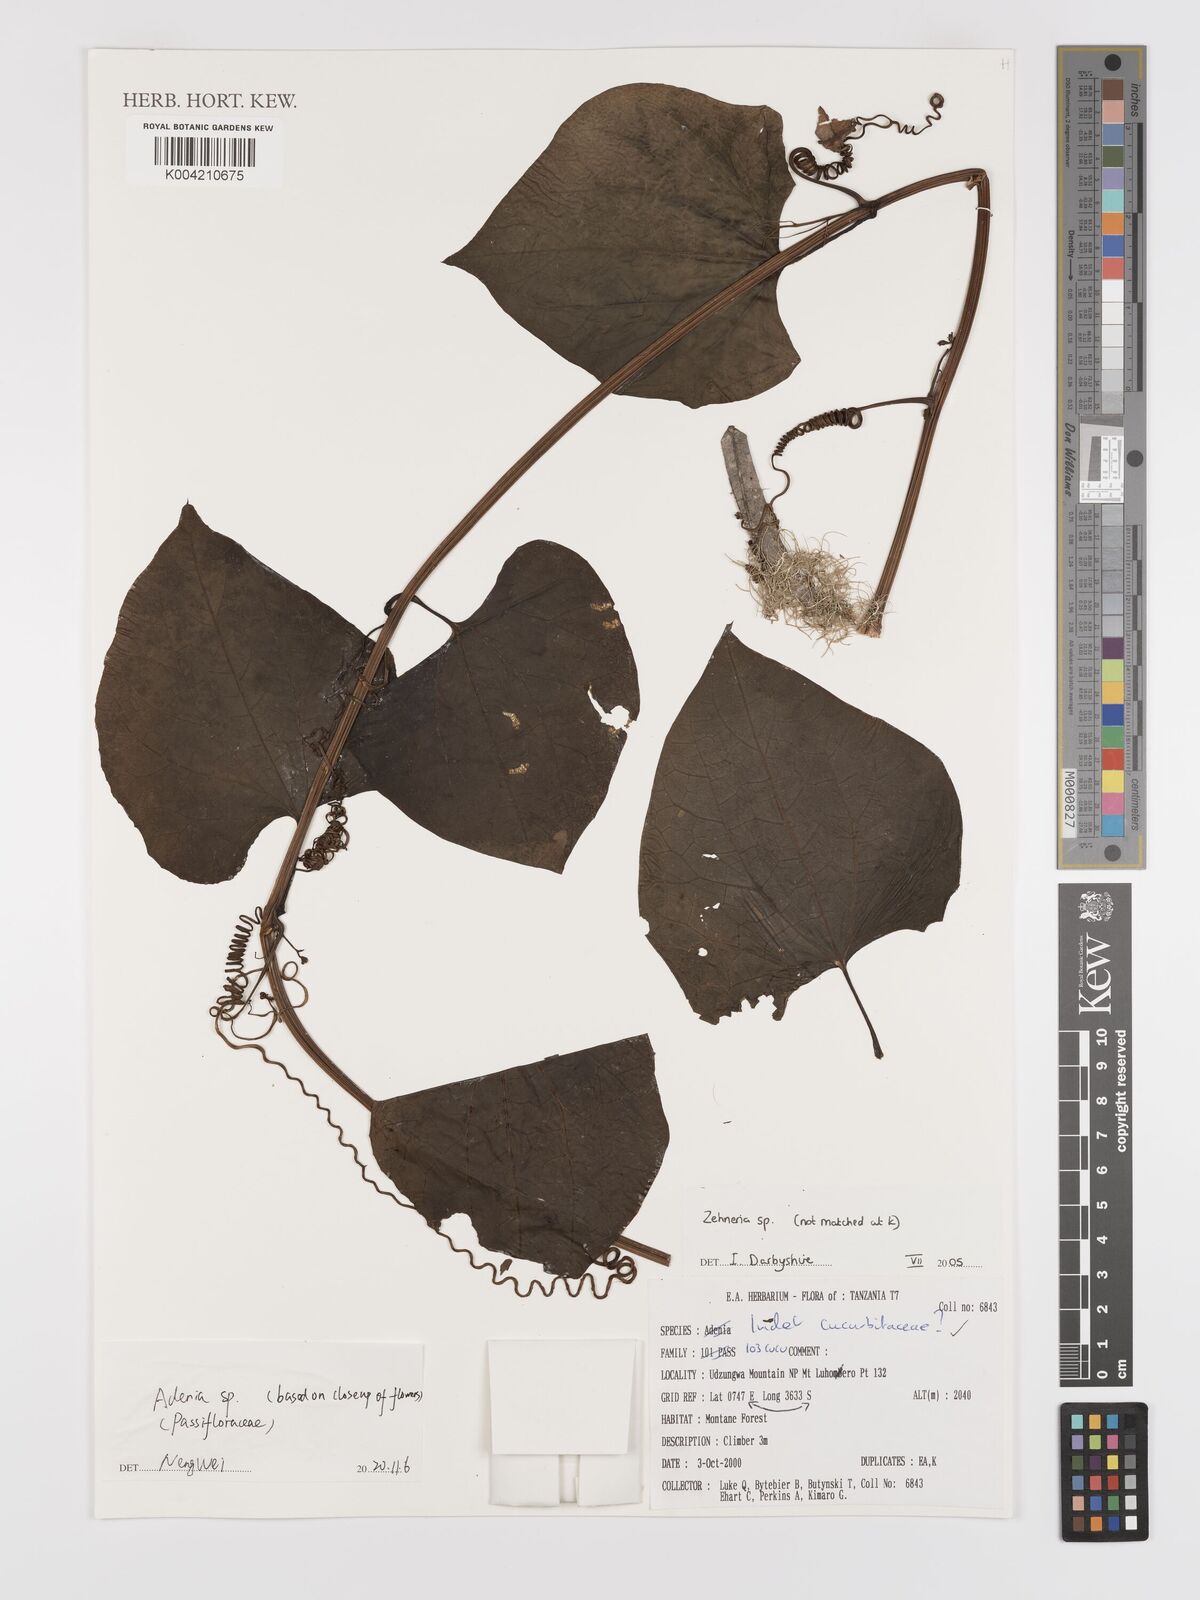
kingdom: Plantae
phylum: Tracheophyta
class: Magnoliopsida
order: Cucurbitales
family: Cucurbitaceae
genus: Zehneria
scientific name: Zehneria scabra
